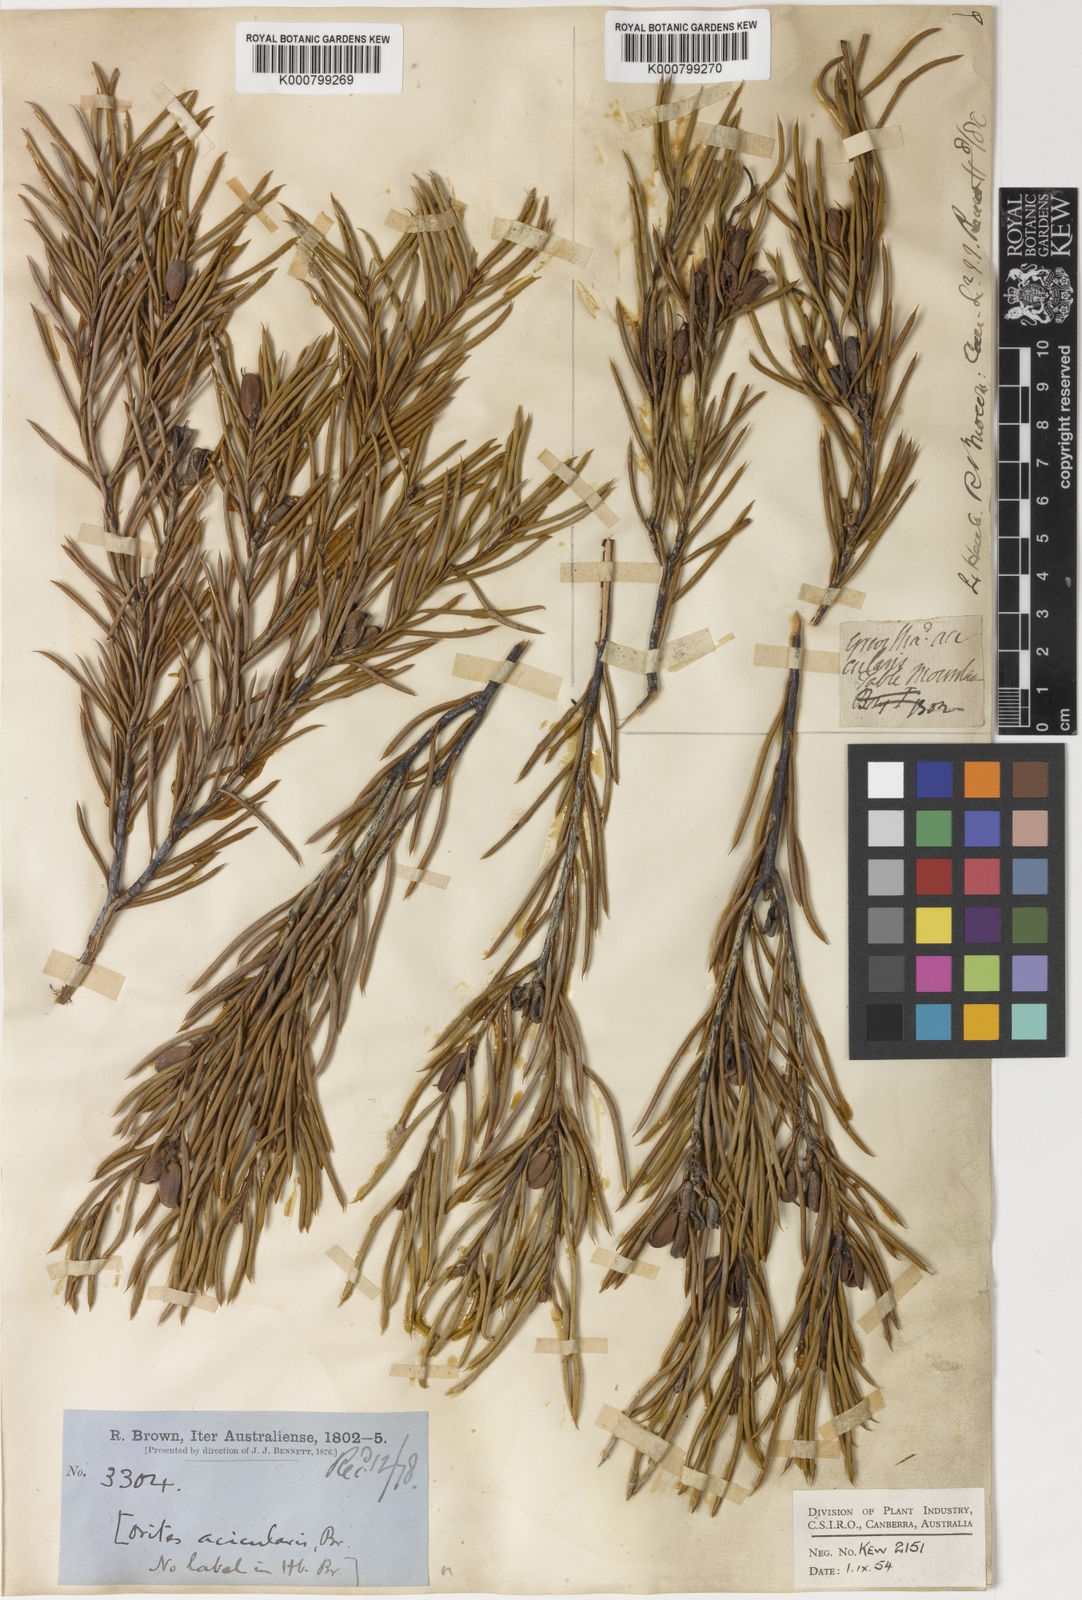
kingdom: Plantae
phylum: Tracheophyta
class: Magnoliopsida
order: Proteales
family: Proteaceae
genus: Orites
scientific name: Orites acicularis
